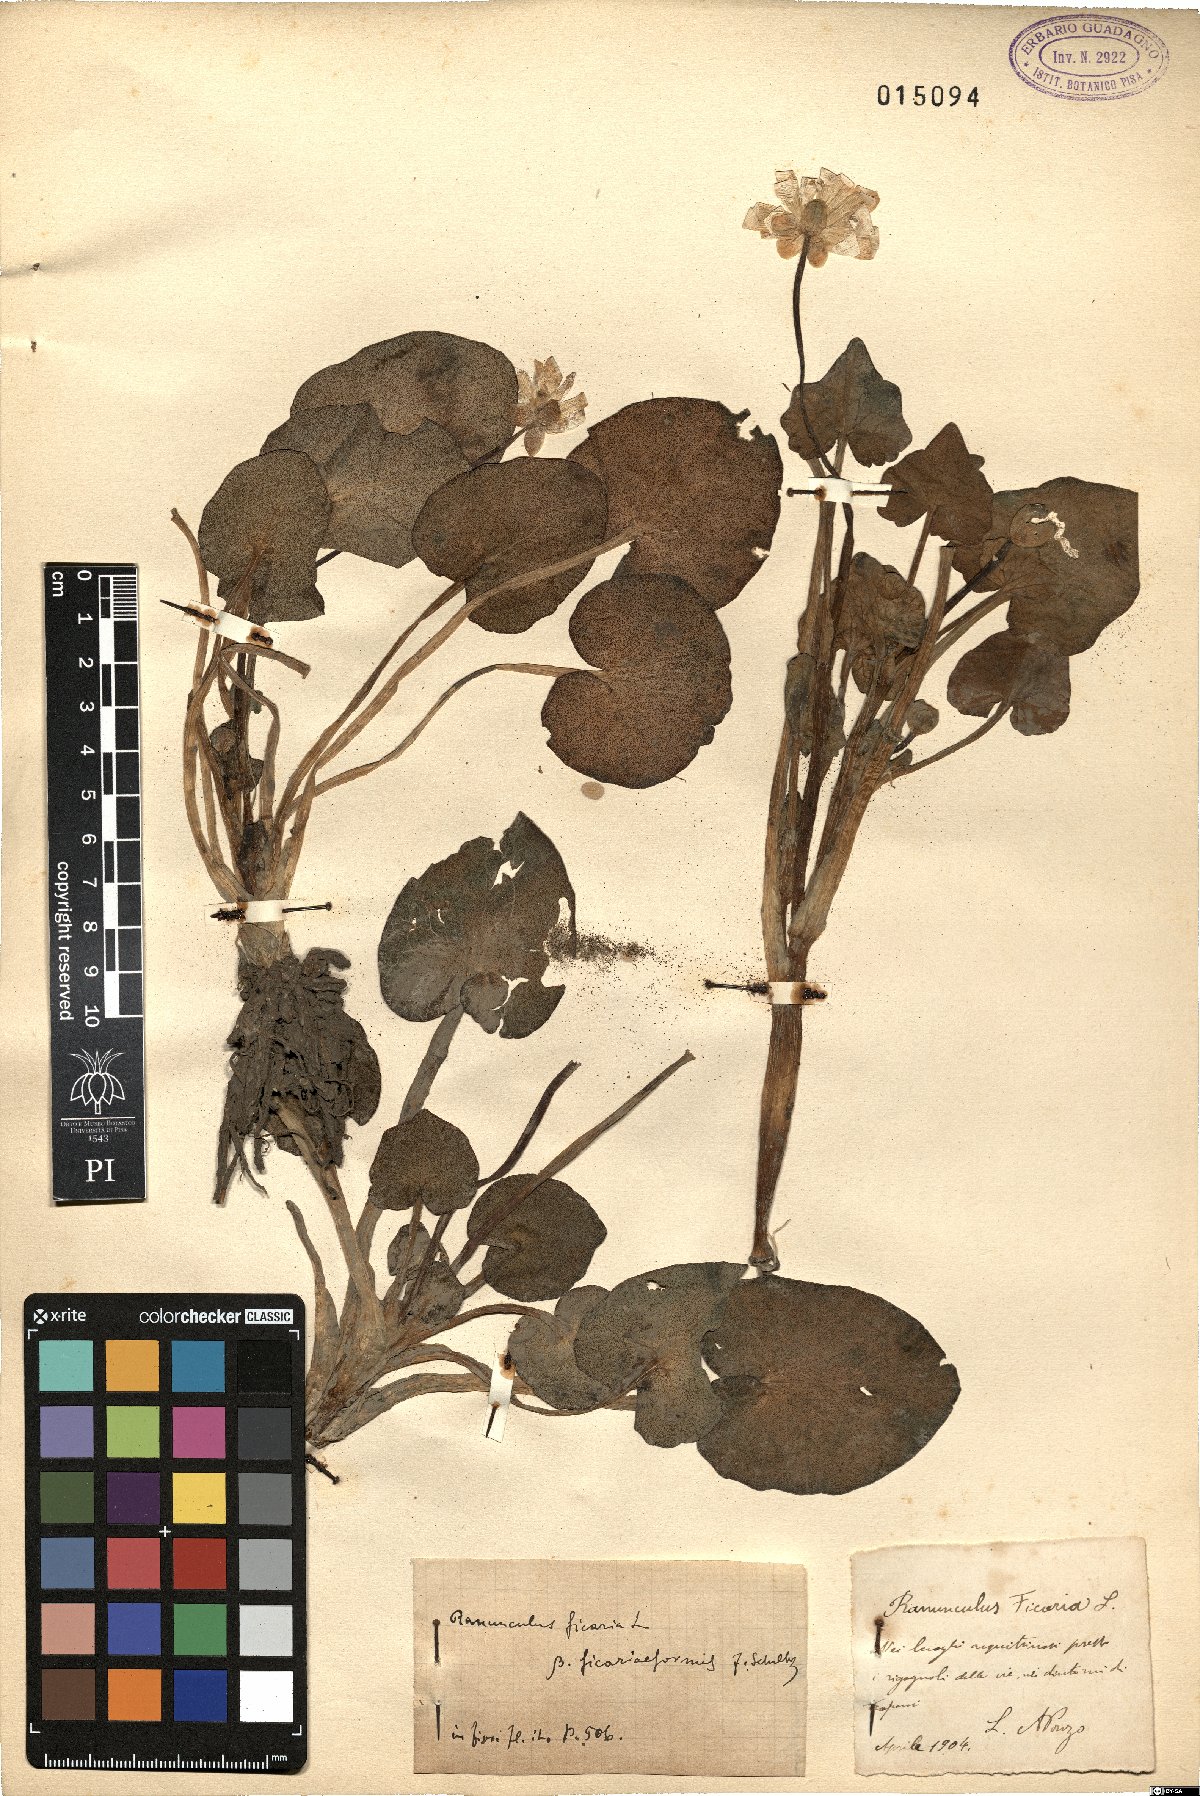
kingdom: Plantae
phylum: Tracheophyta
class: Magnoliopsida
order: Ranunculales
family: Ranunculaceae
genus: Ranunculus
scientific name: Ranunculus ficariiformis
